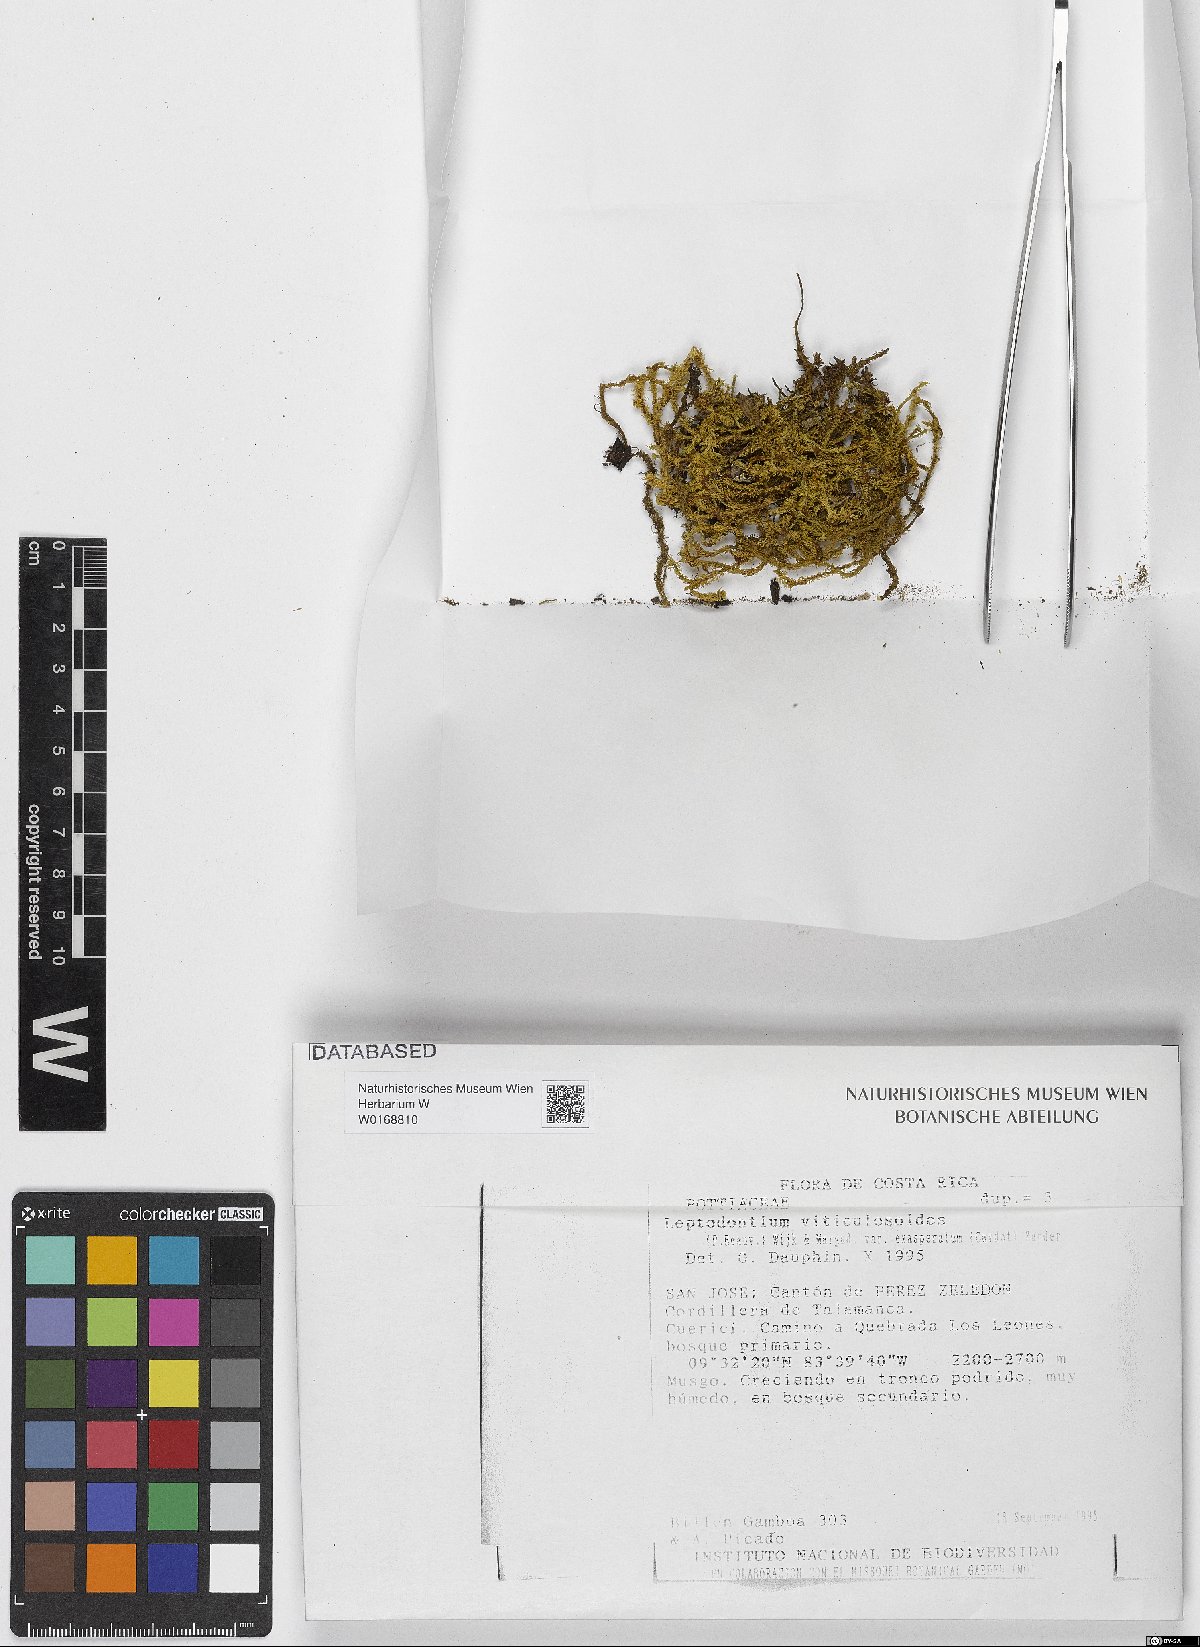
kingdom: Plantae
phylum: Bryophyta
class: Bryopsida
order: Pottiales
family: Pottiaceae
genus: Leptodontium
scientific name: Leptodontium viticulosoides
